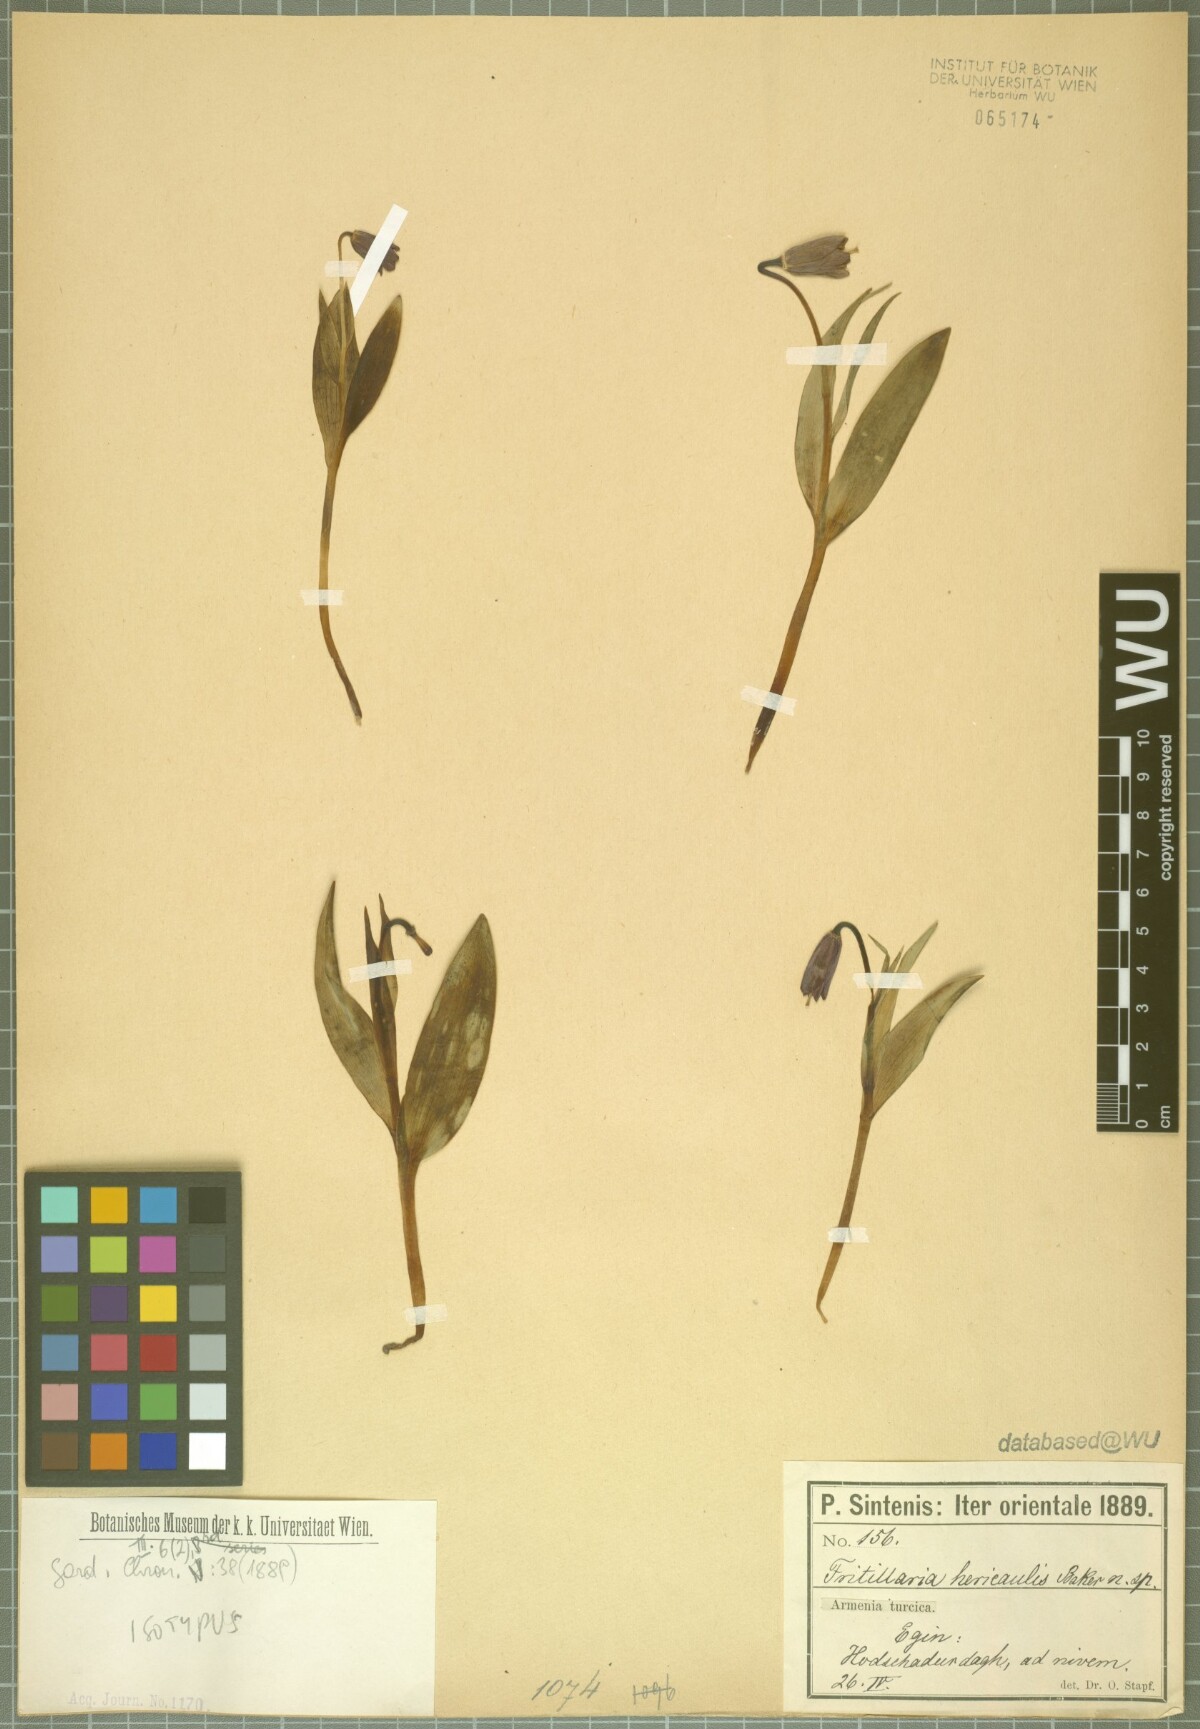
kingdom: Plantae
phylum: Tracheophyta
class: Liliopsida
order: Liliales
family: Liliaceae
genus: Fritillaria
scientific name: Fritillaria pinardii
